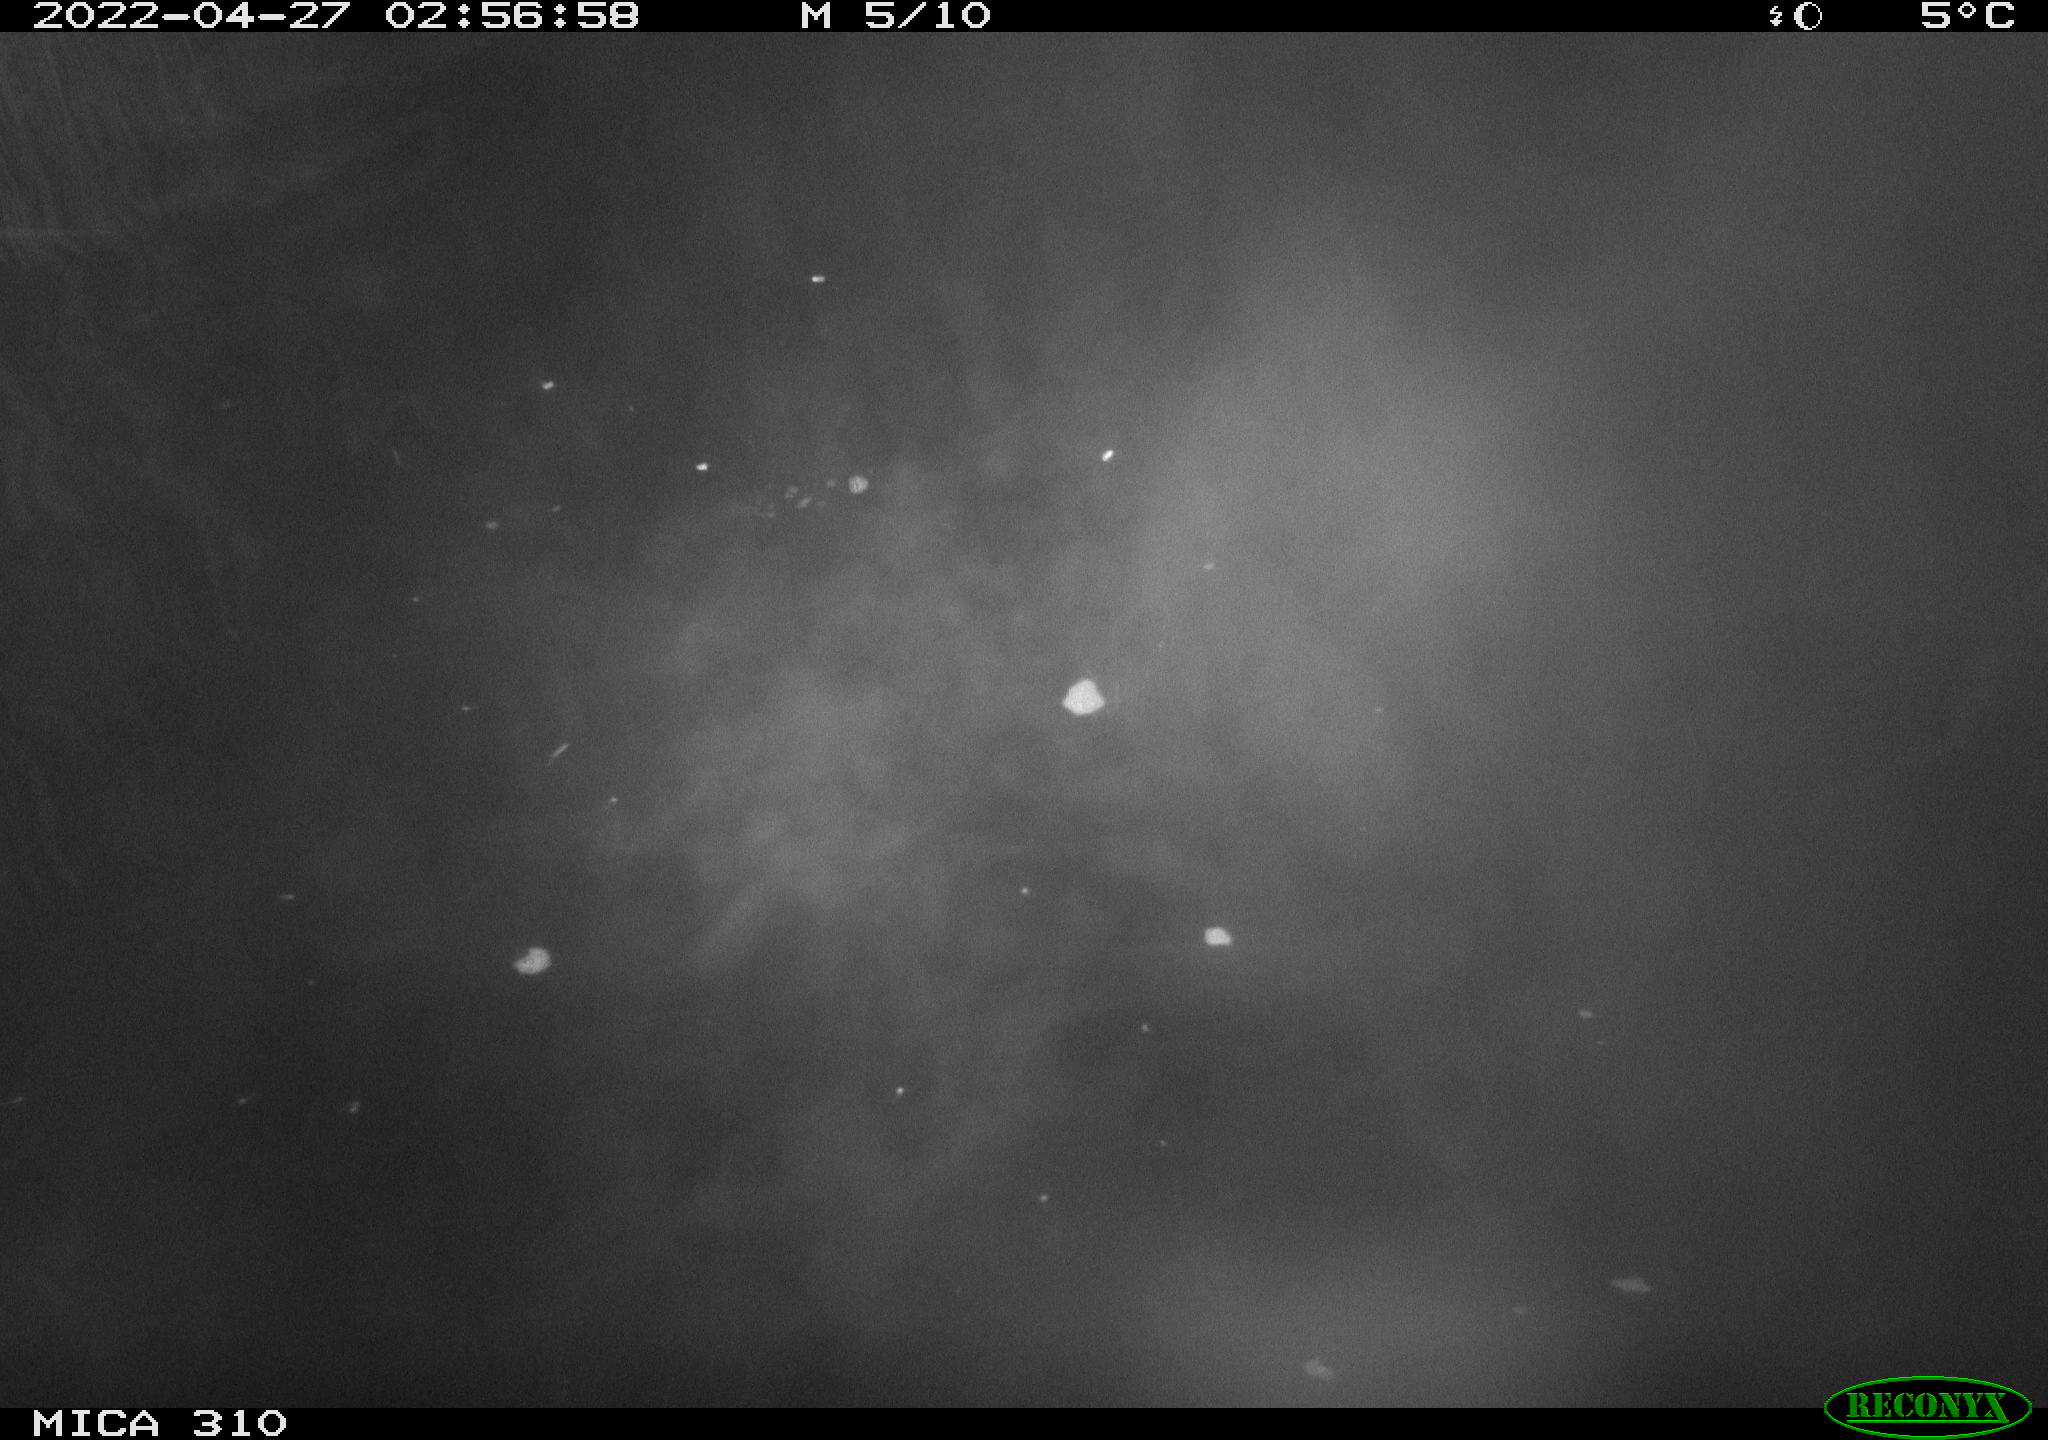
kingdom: Animalia
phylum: Chordata
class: Aves
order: Anseriformes
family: Anatidae
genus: Anas
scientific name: Anas platyrhynchos
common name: Mallard
